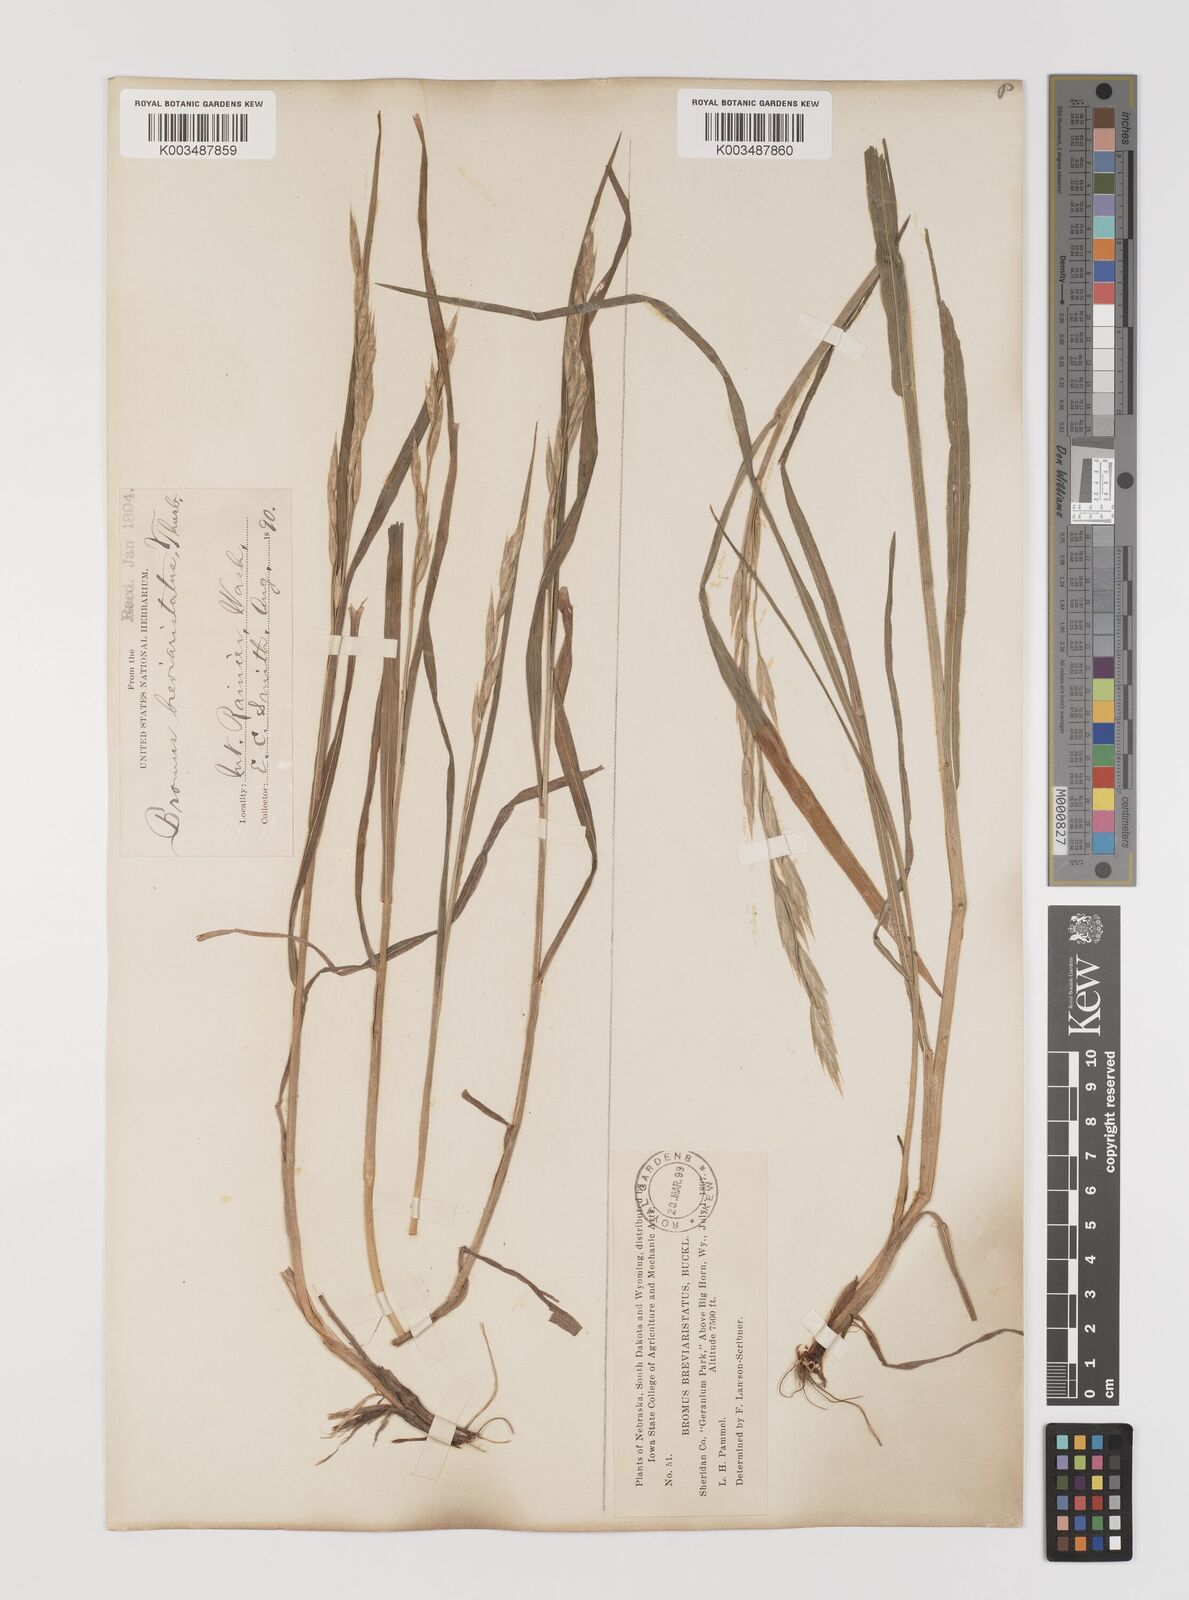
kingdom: Plantae
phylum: Tracheophyta
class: Liliopsida
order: Poales
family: Poaceae
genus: Bromus
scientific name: Bromus catharticus
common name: Rescuegrass
